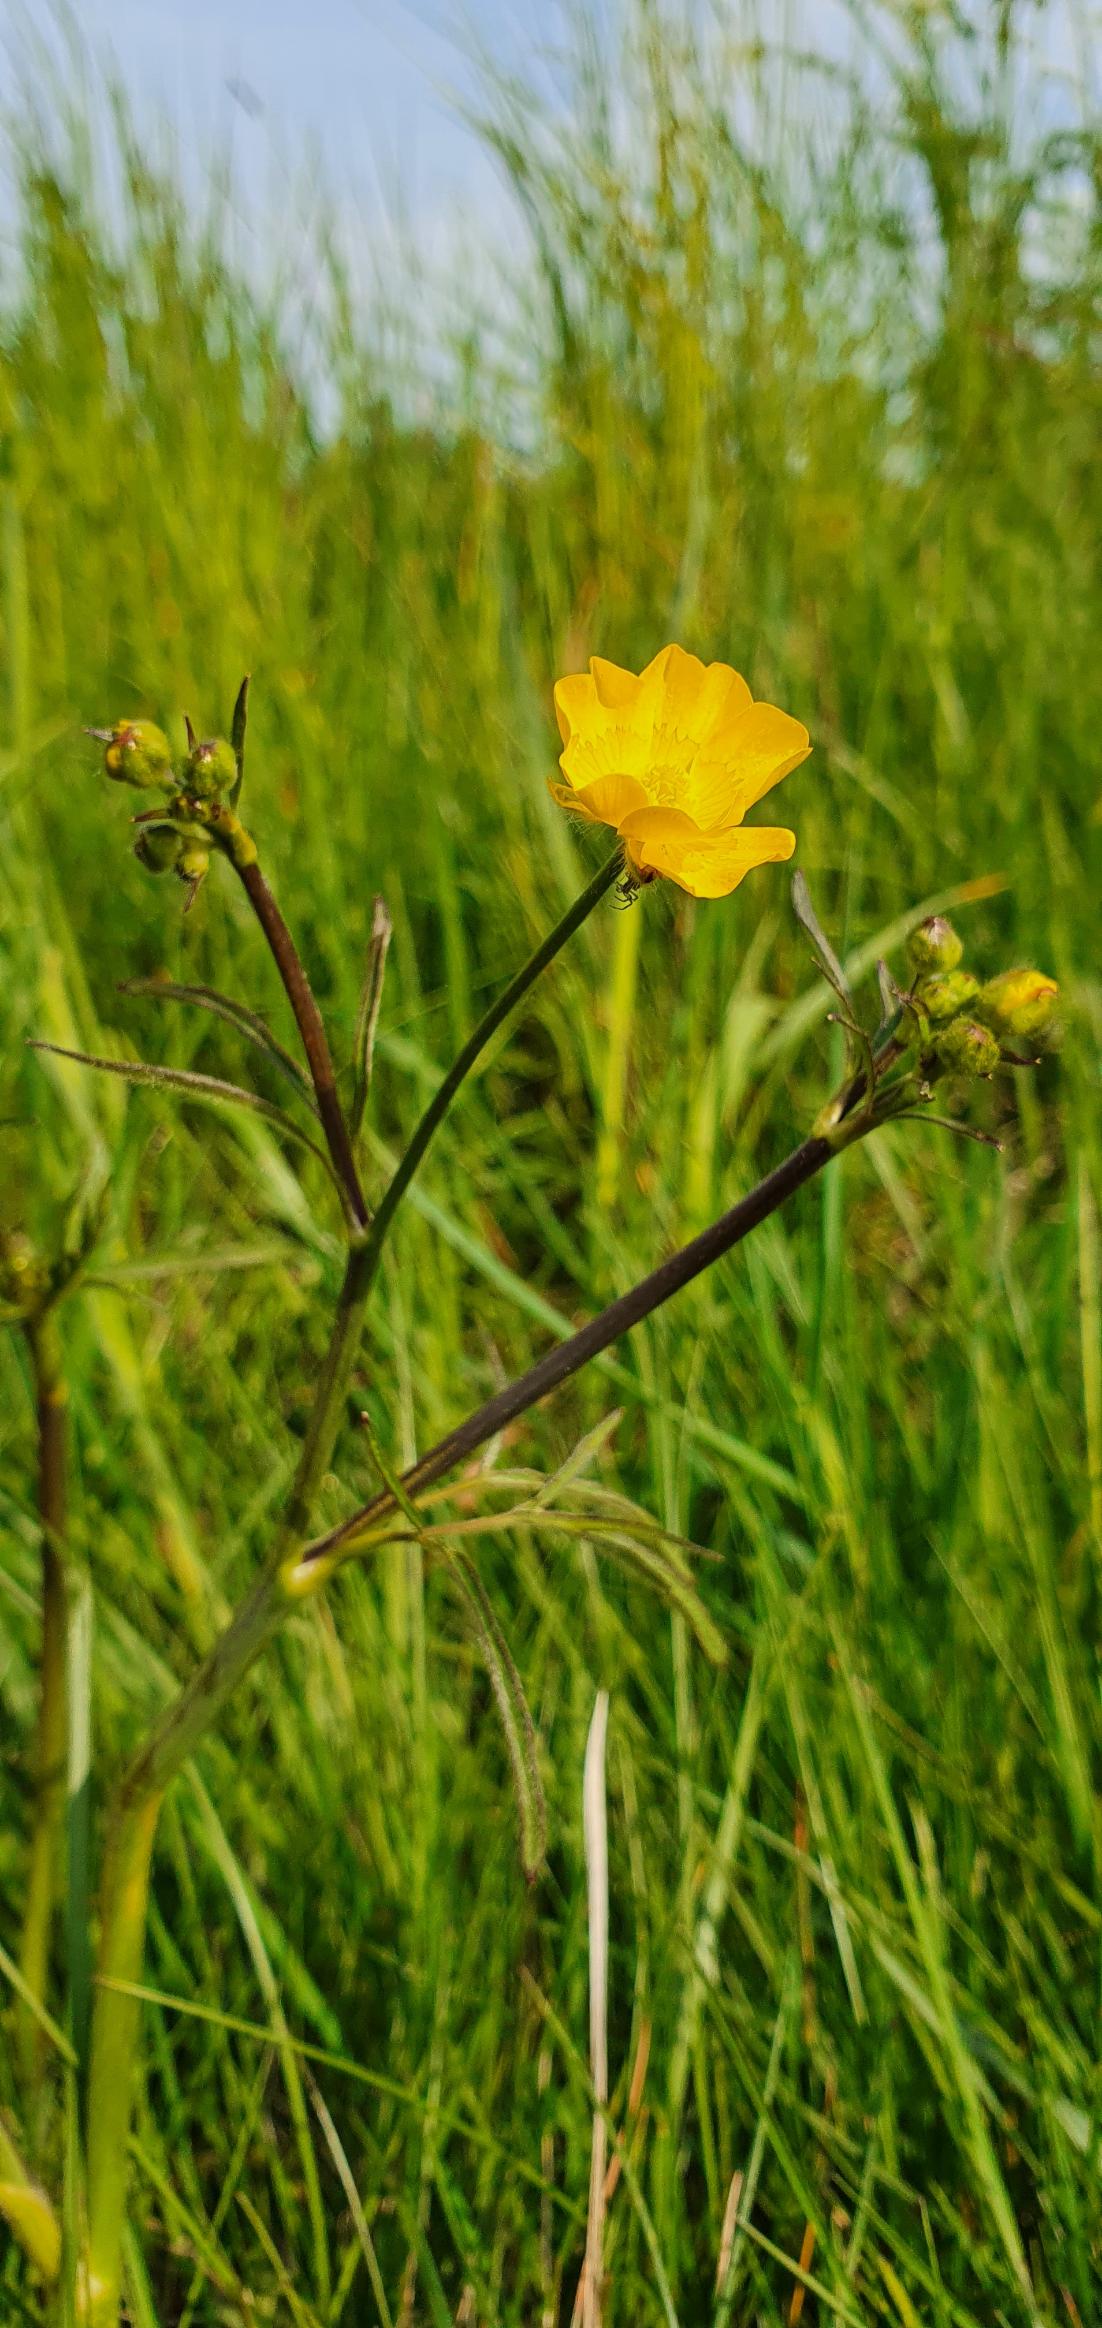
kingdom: Plantae
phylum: Tracheophyta
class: Magnoliopsida
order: Ranunculales
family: Ranunculaceae
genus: Ranunculus
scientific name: Ranunculus acris
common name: Bidende ranunkel
